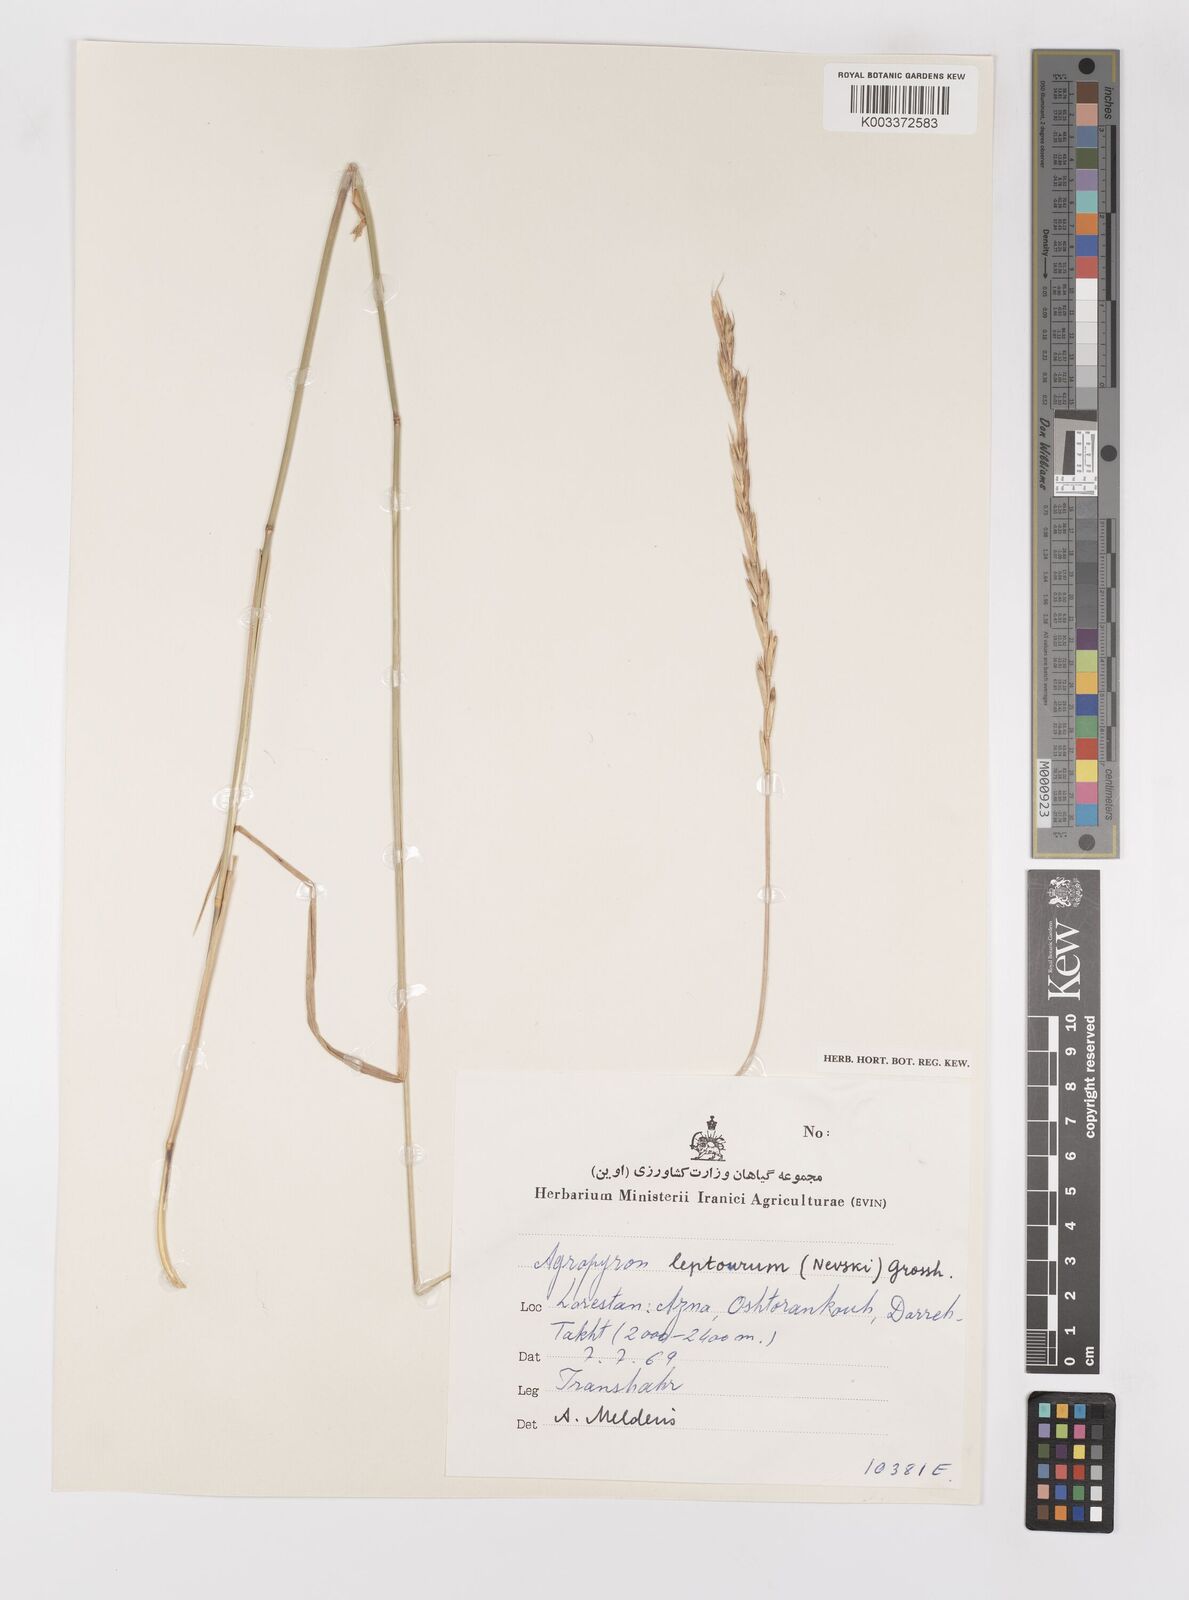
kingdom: Plantae
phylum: Tracheophyta
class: Liliopsida
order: Poales
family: Poaceae
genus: Elymus
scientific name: Elymus transhyrcanus
